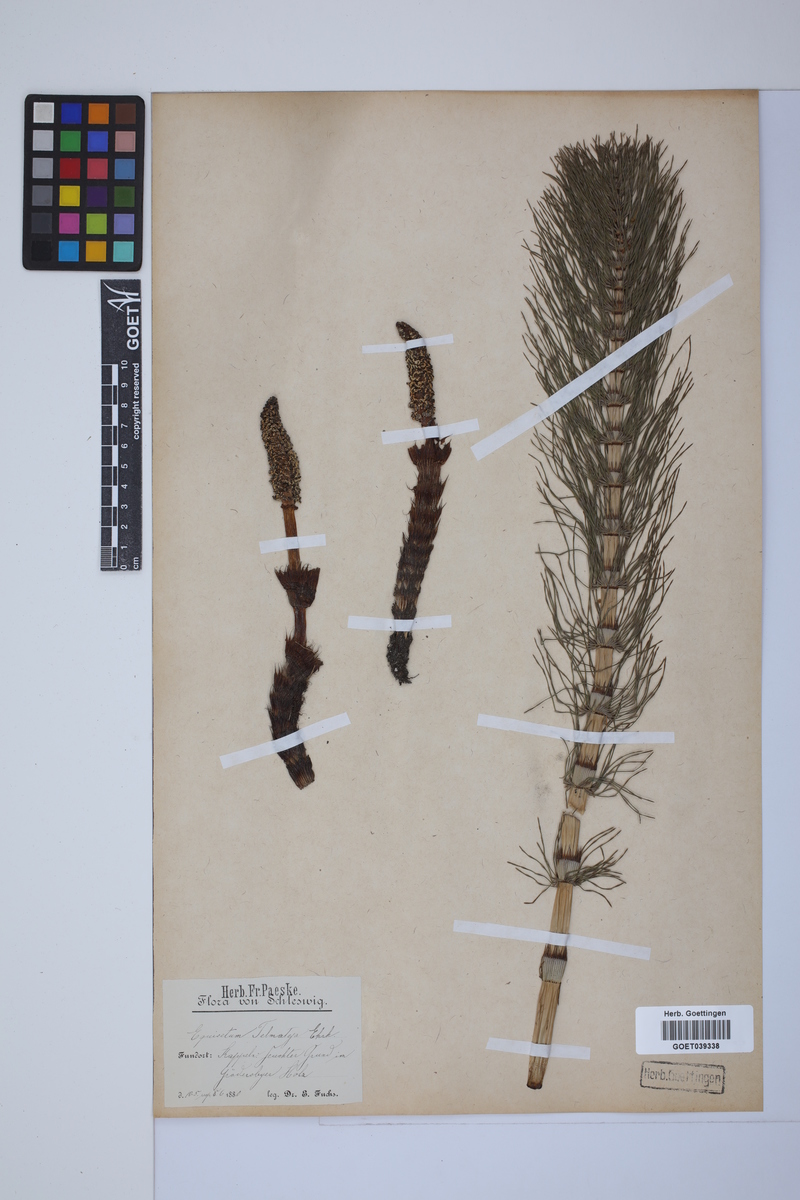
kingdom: Plantae
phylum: Tracheophyta
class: Polypodiopsida
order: Equisetales
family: Equisetaceae
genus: Equisetum
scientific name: Equisetum telmateia
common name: Great horsetail
